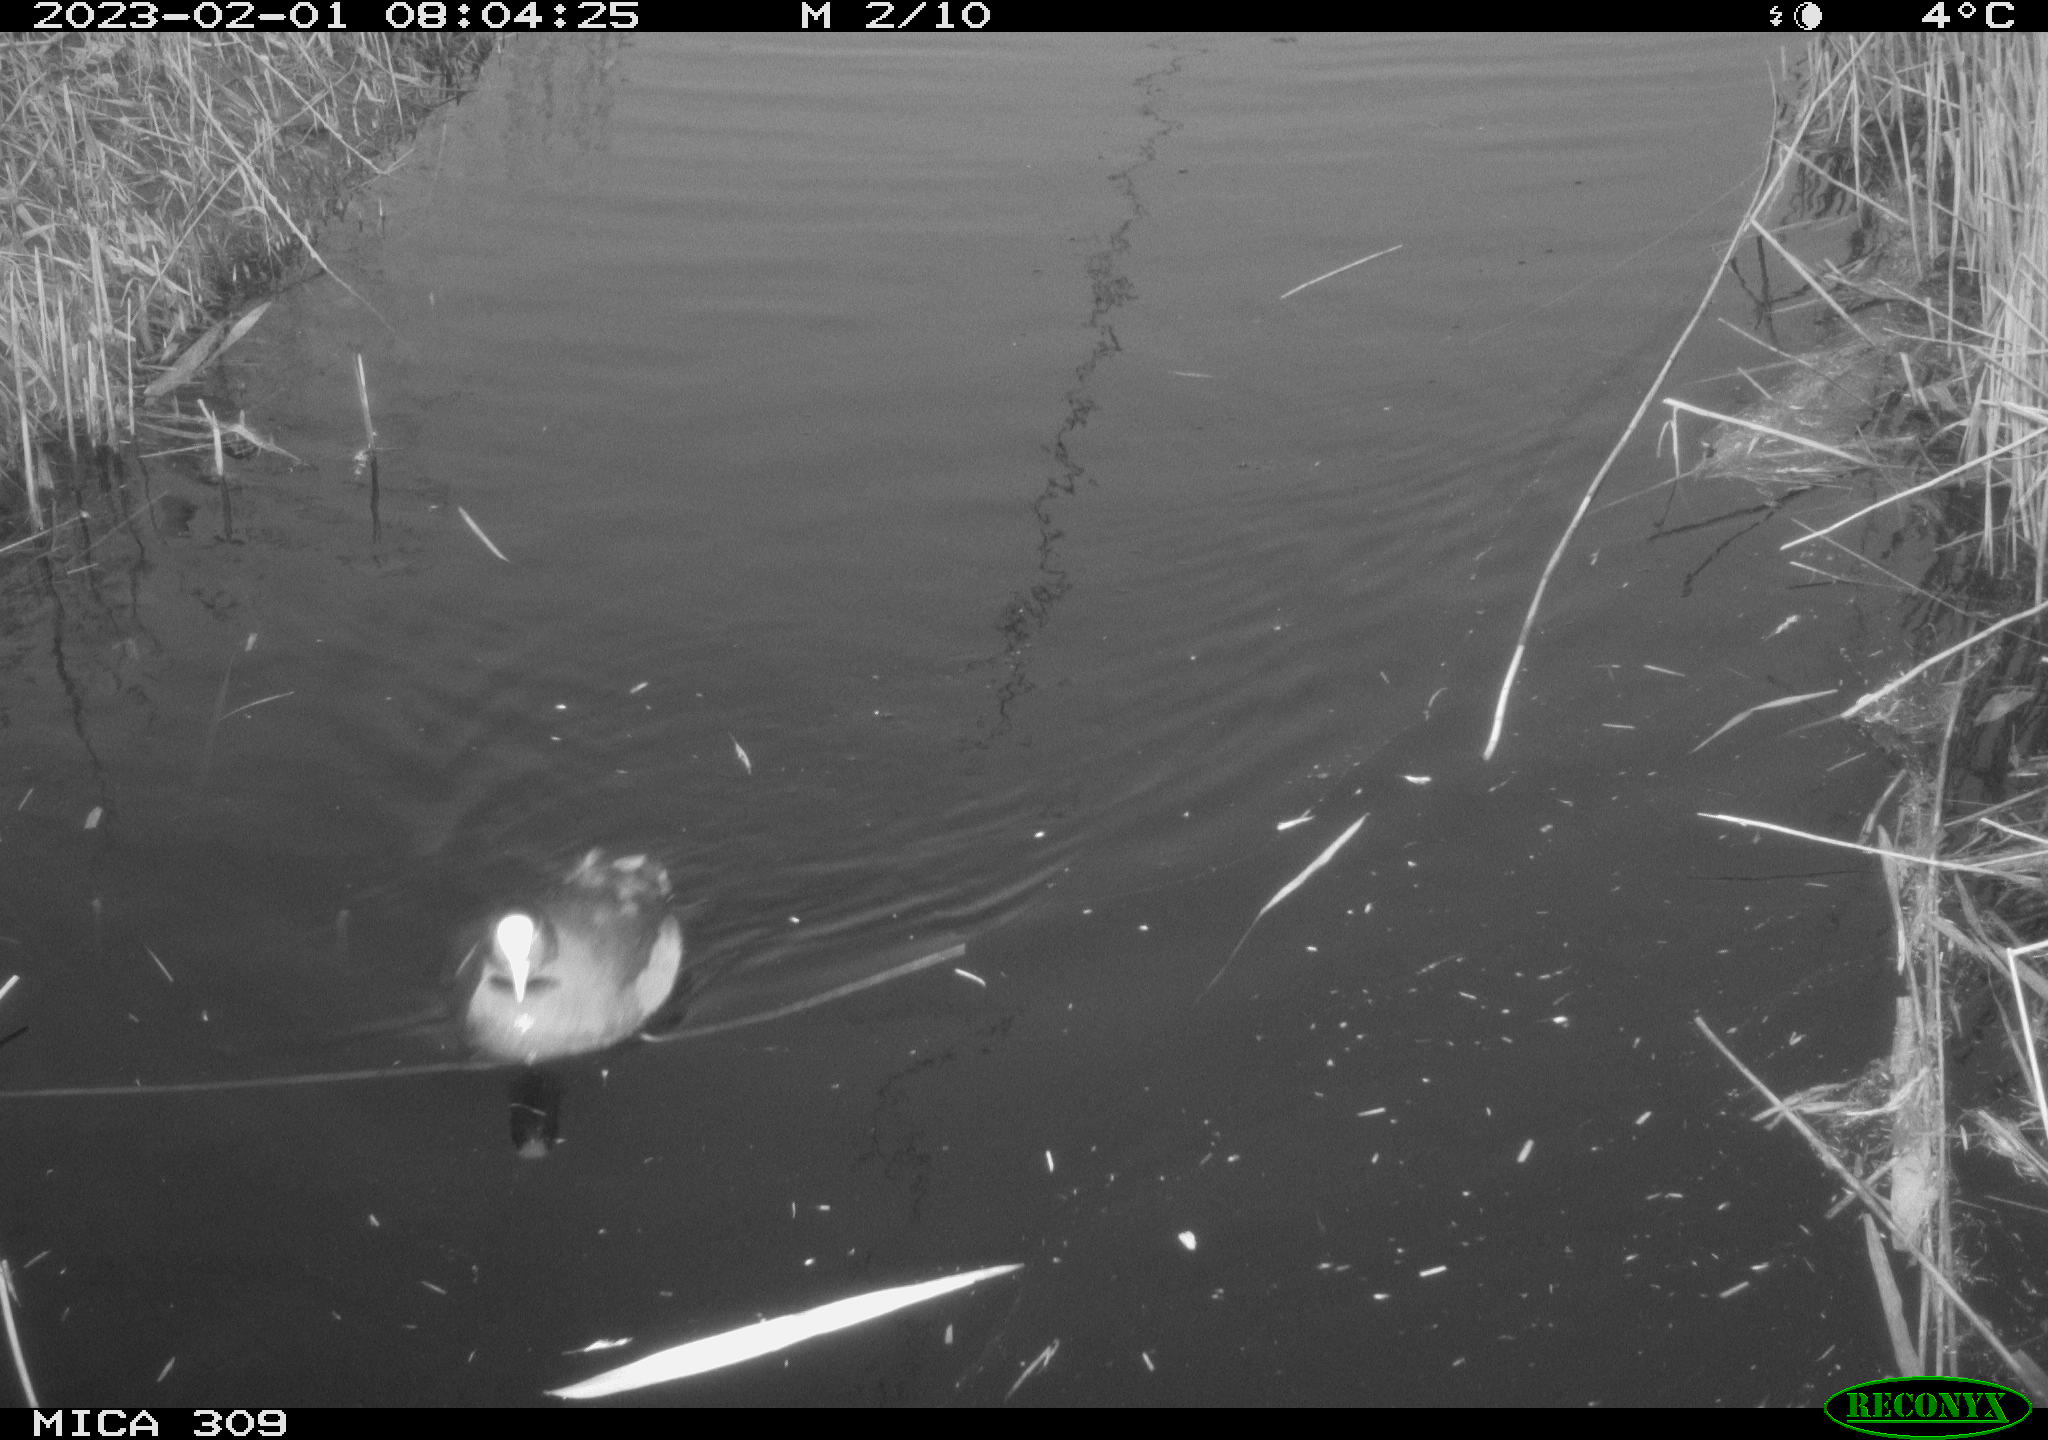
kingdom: Animalia
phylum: Chordata
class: Aves
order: Gruiformes
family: Rallidae
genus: Fulica
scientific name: Fulica atra
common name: Eurasian coot
